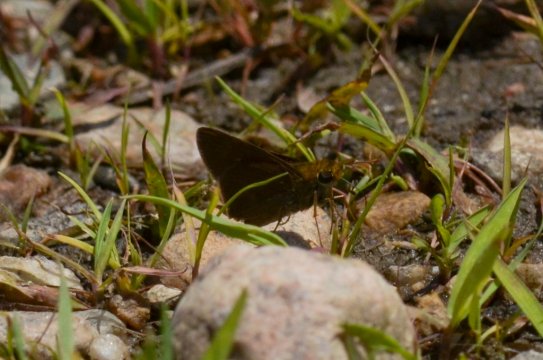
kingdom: Animalia
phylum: Arthropoda
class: Insecta
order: Lepidoptera
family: Hesperiidae
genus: Euphyes
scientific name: Euphyes
